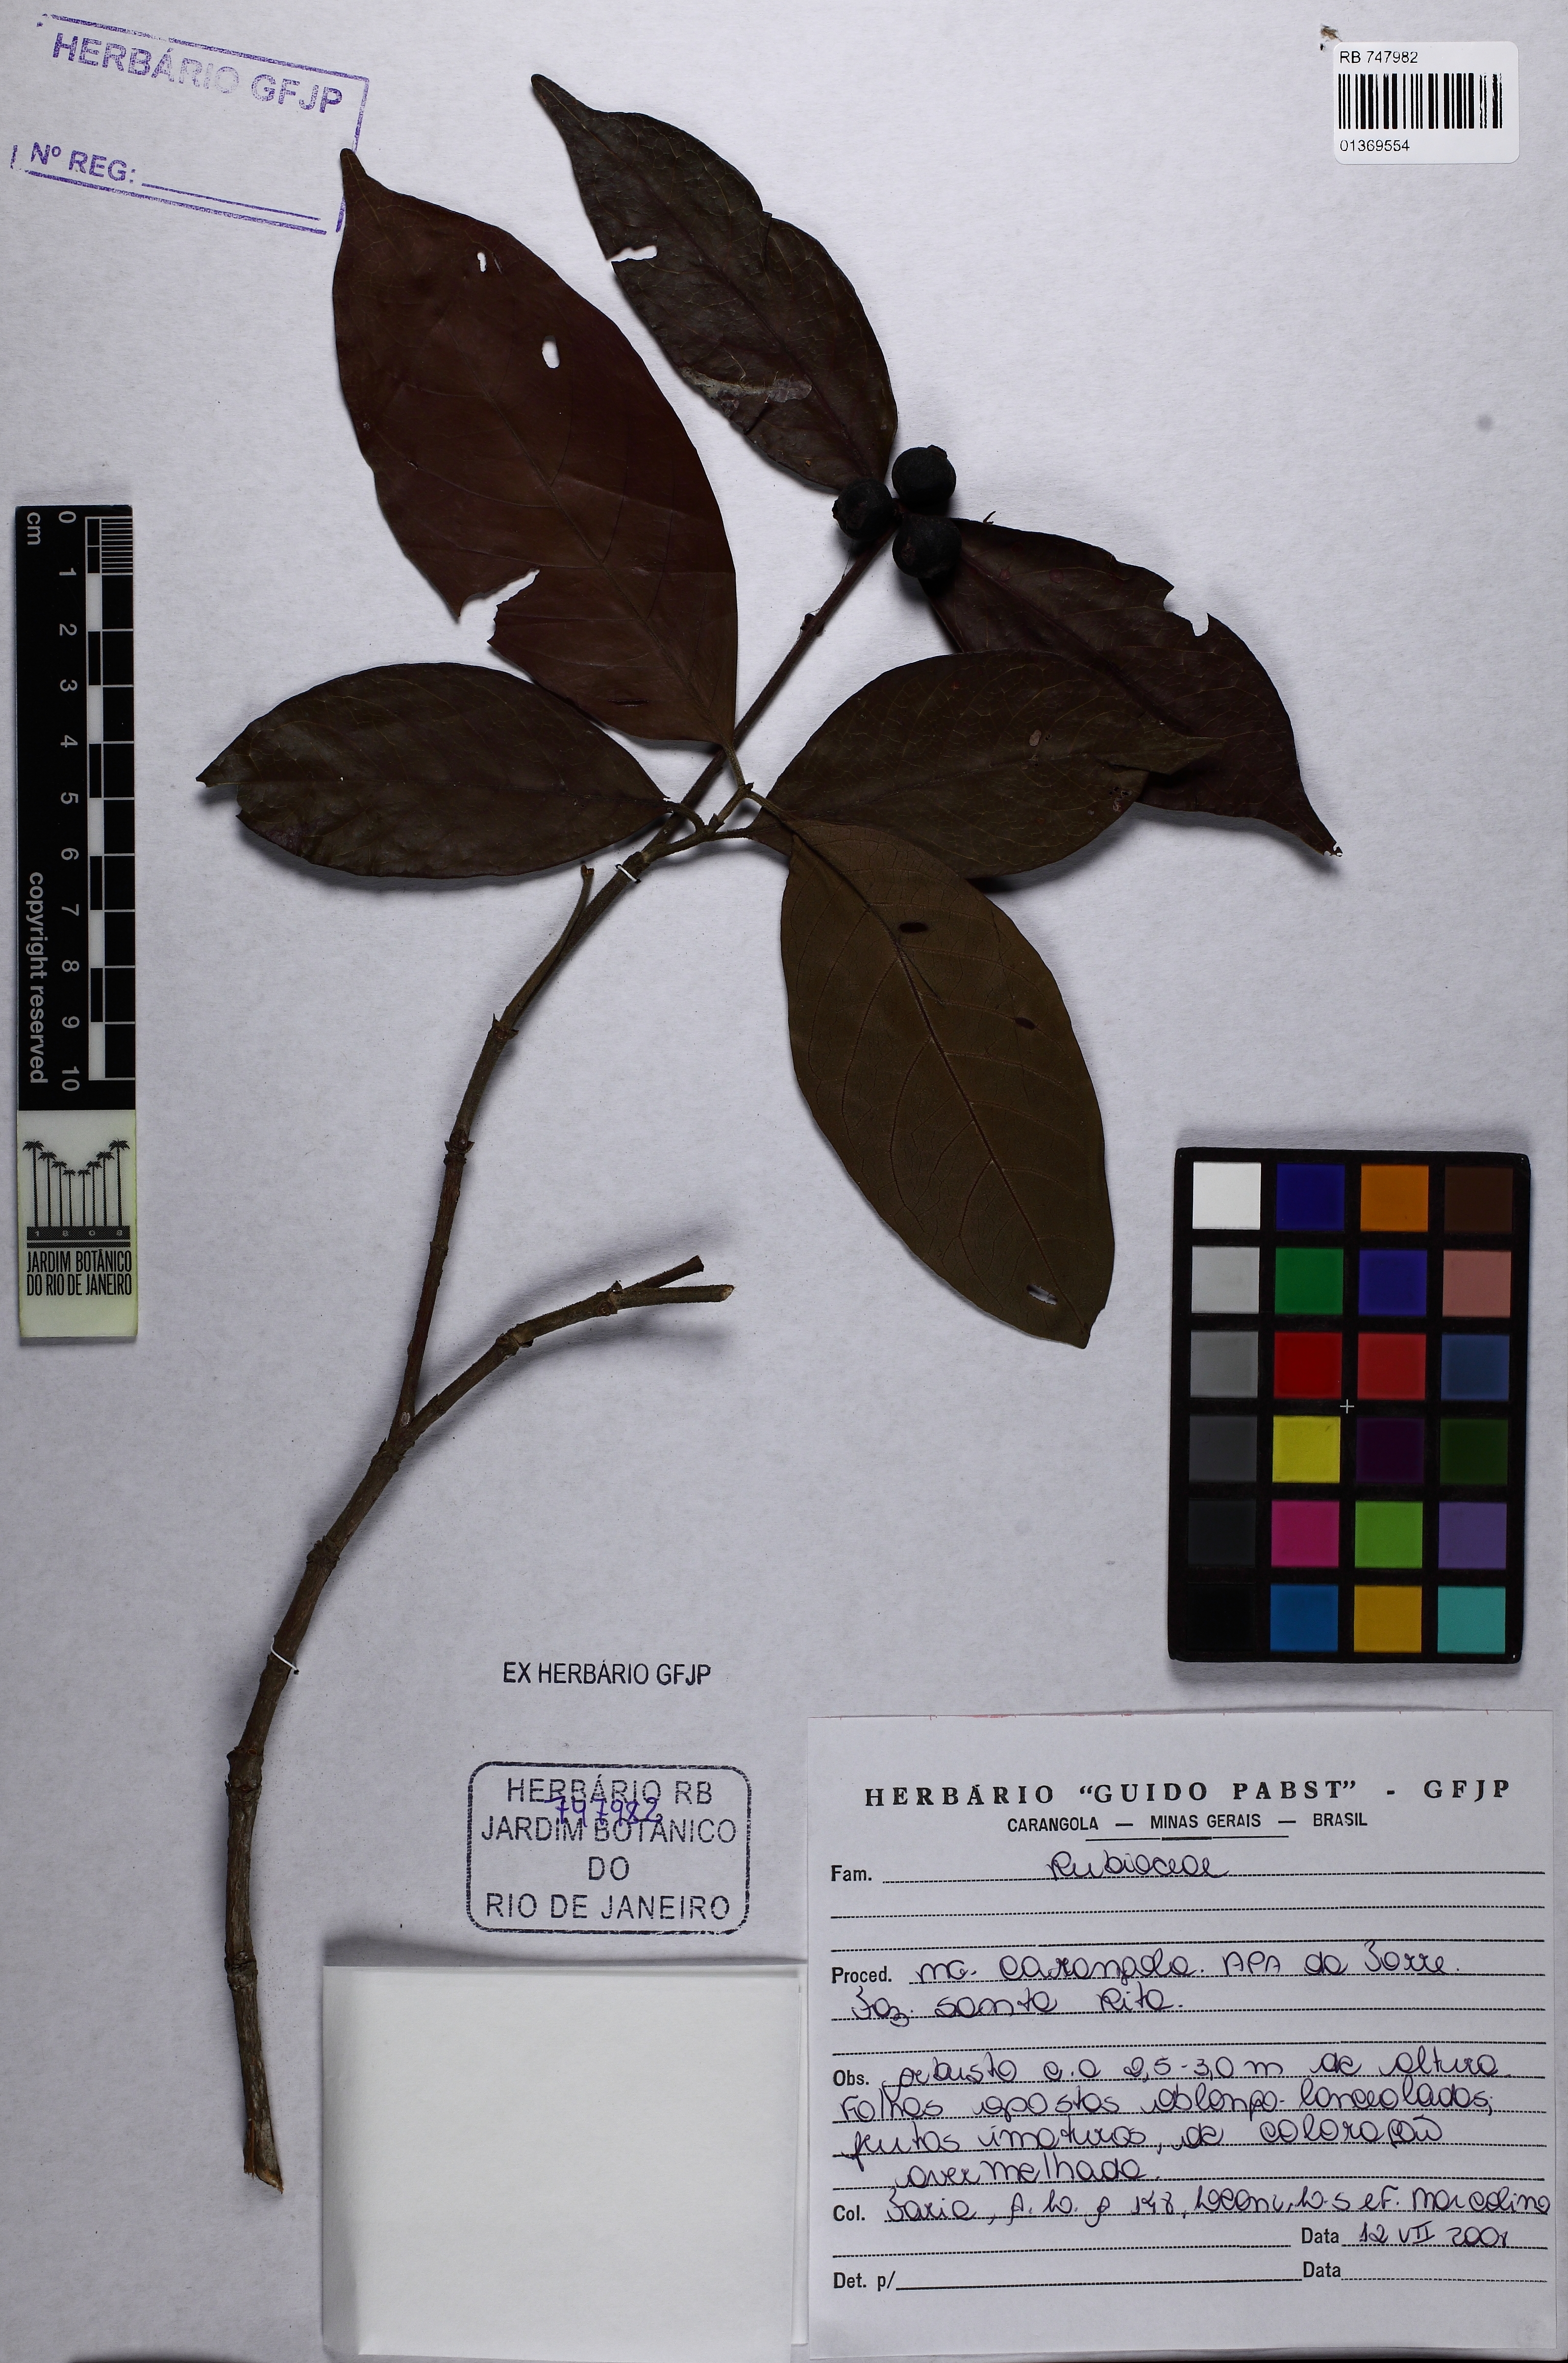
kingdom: Plantae
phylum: Tracheophyta
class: Magnoliopsida
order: Gentianales
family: Rubiaceae
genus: Cordiera
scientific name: Cordiera
